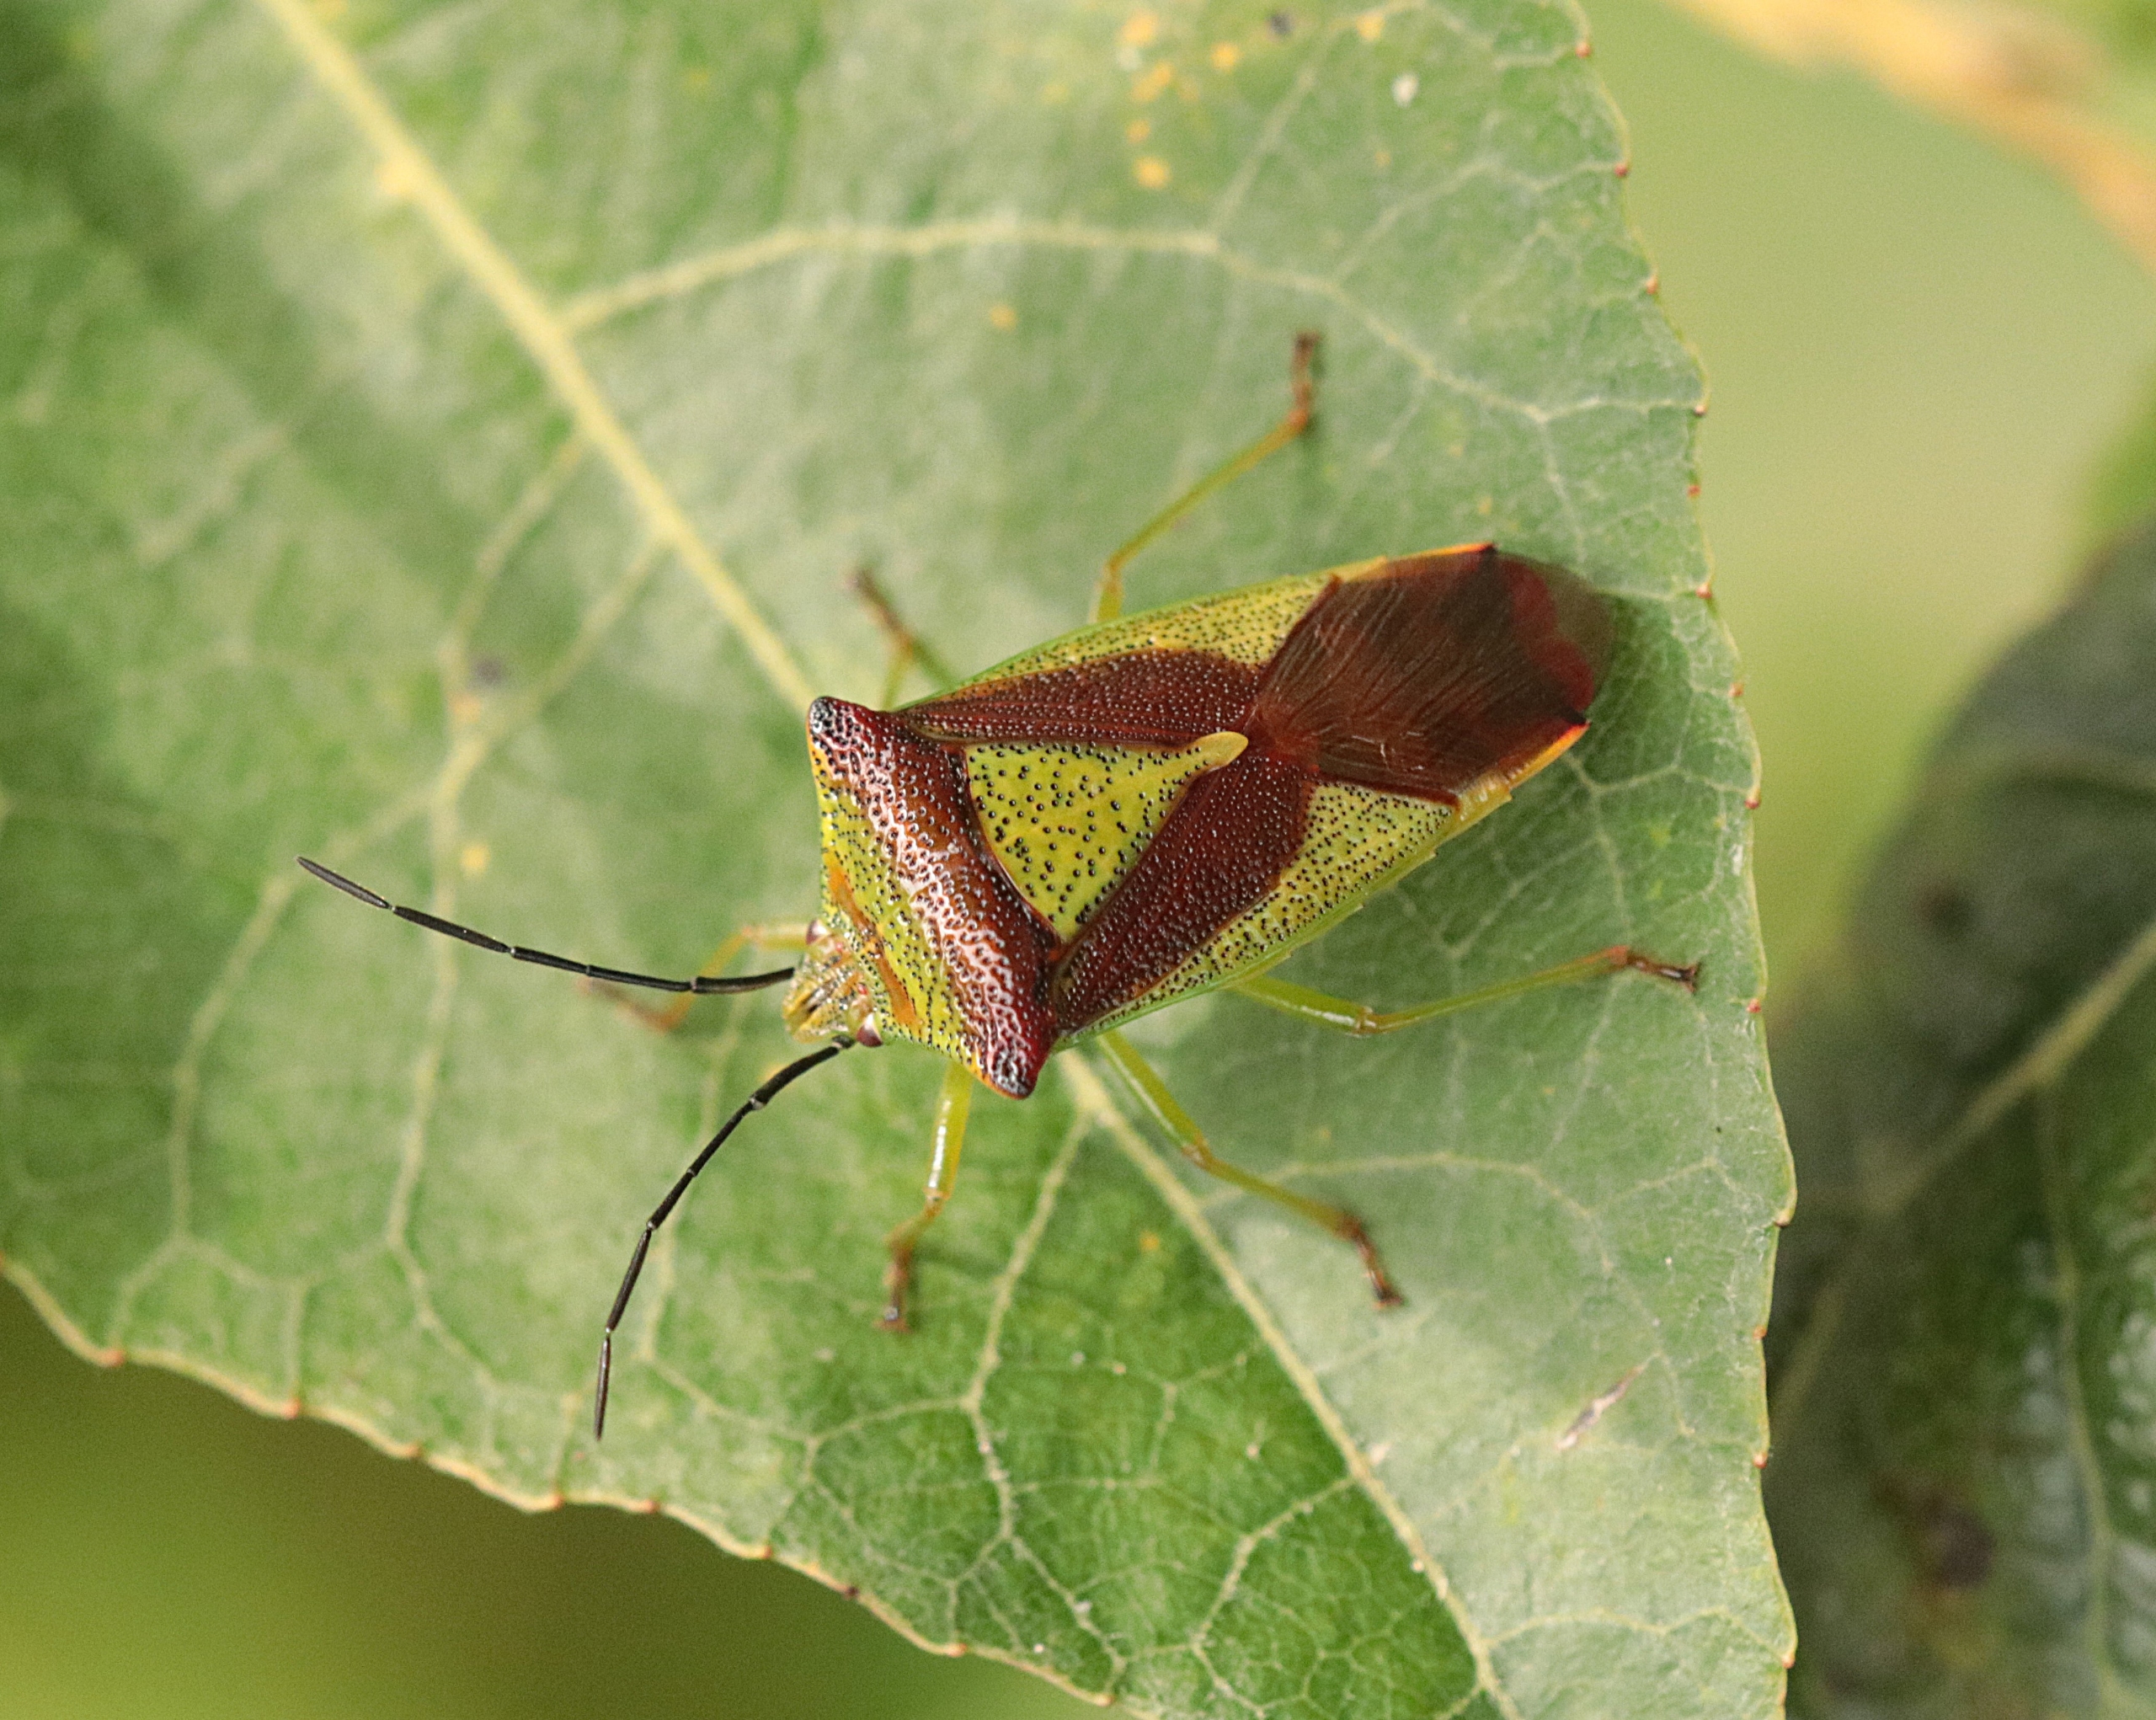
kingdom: Animalia
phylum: Arthropoda
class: Insecta
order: Hemiptera
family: Acanthosomatidae
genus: Acanthosoma
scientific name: Acanthosoma haemorrhoidale
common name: Stor løvtæge
